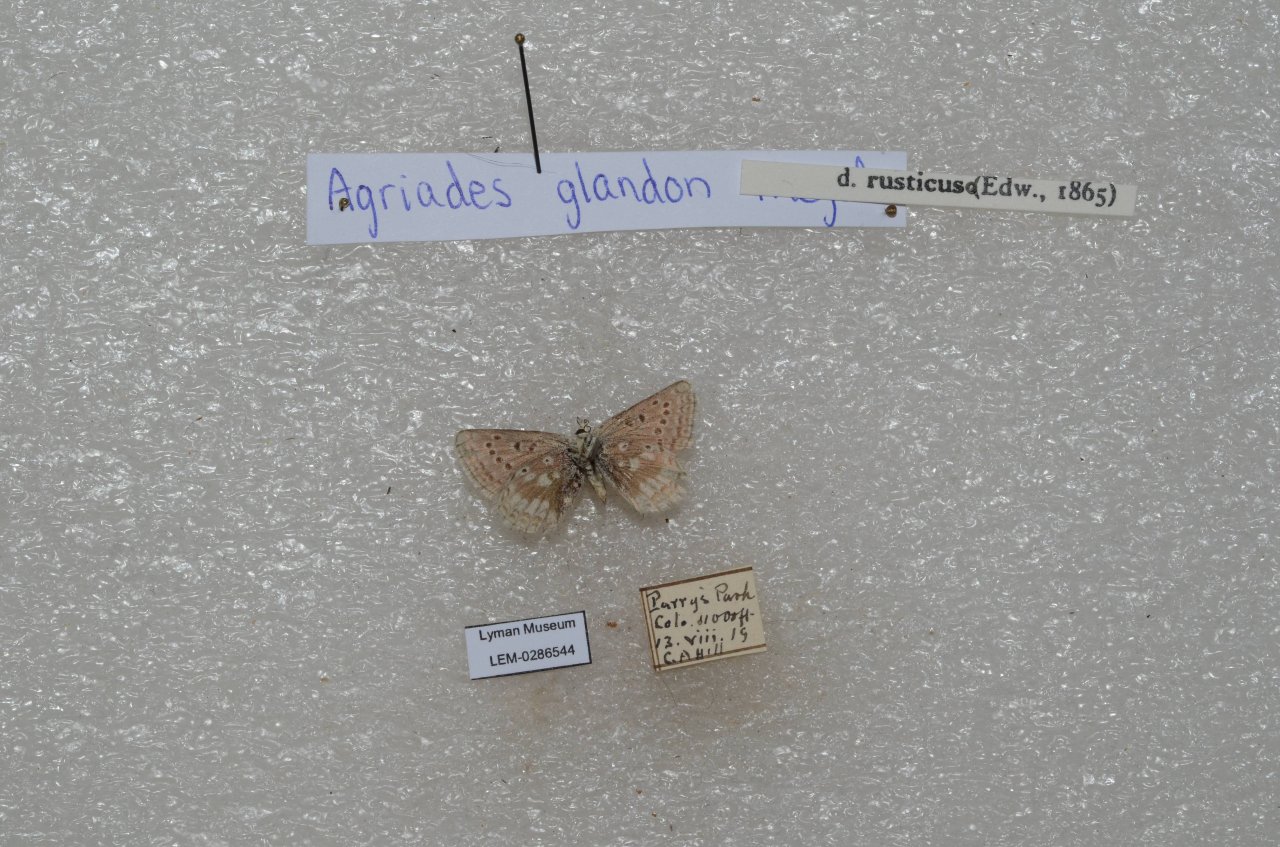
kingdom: Animalia
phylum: Arthropoda
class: Insecta
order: Lepidoptera
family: Lycaenidae
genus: Agriades
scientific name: Agriades glandon
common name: Arctic Blue
